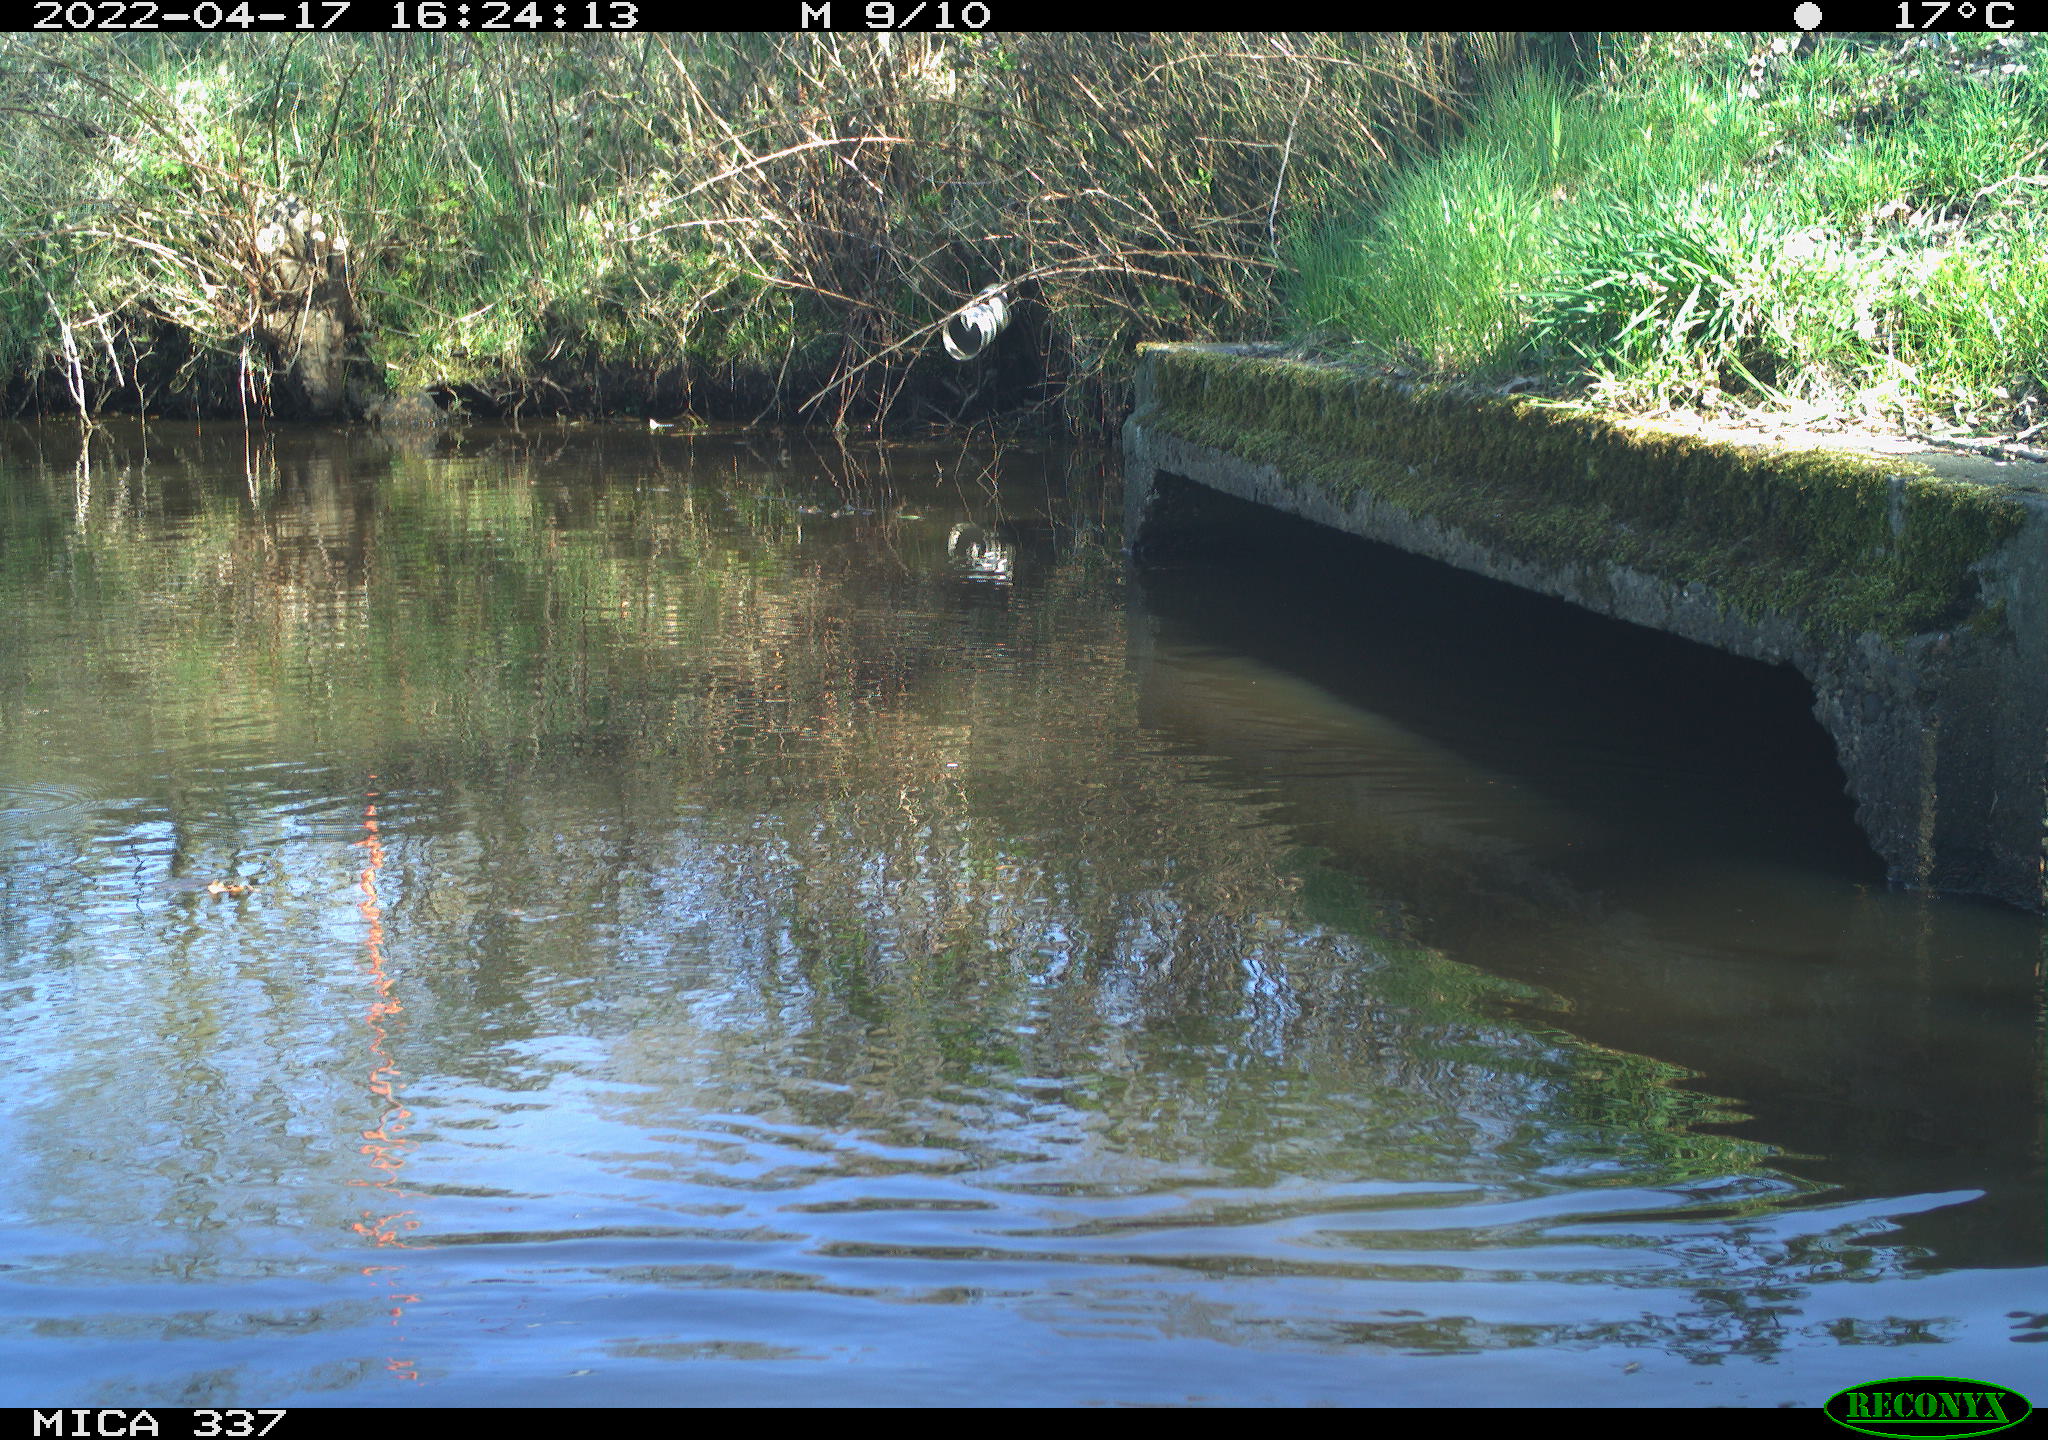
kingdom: Animalia
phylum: Chordata
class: Aves
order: Gruiformes
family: Rallidae
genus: Gallinula
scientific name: Gallinula chloropus
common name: Common moorhen
